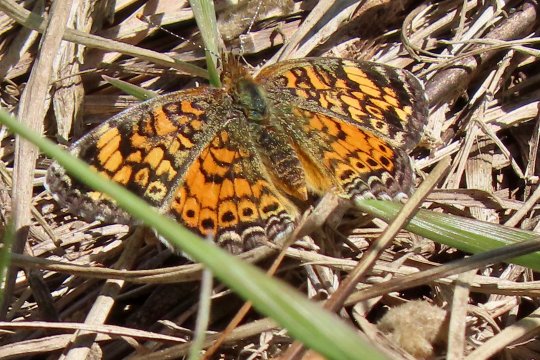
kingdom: Animalia
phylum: Arthropoda
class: Insecta
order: Lepidoptera
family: Nymphalidae
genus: Phyciodes
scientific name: Phyciodes tharos
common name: Pearl Crescent
